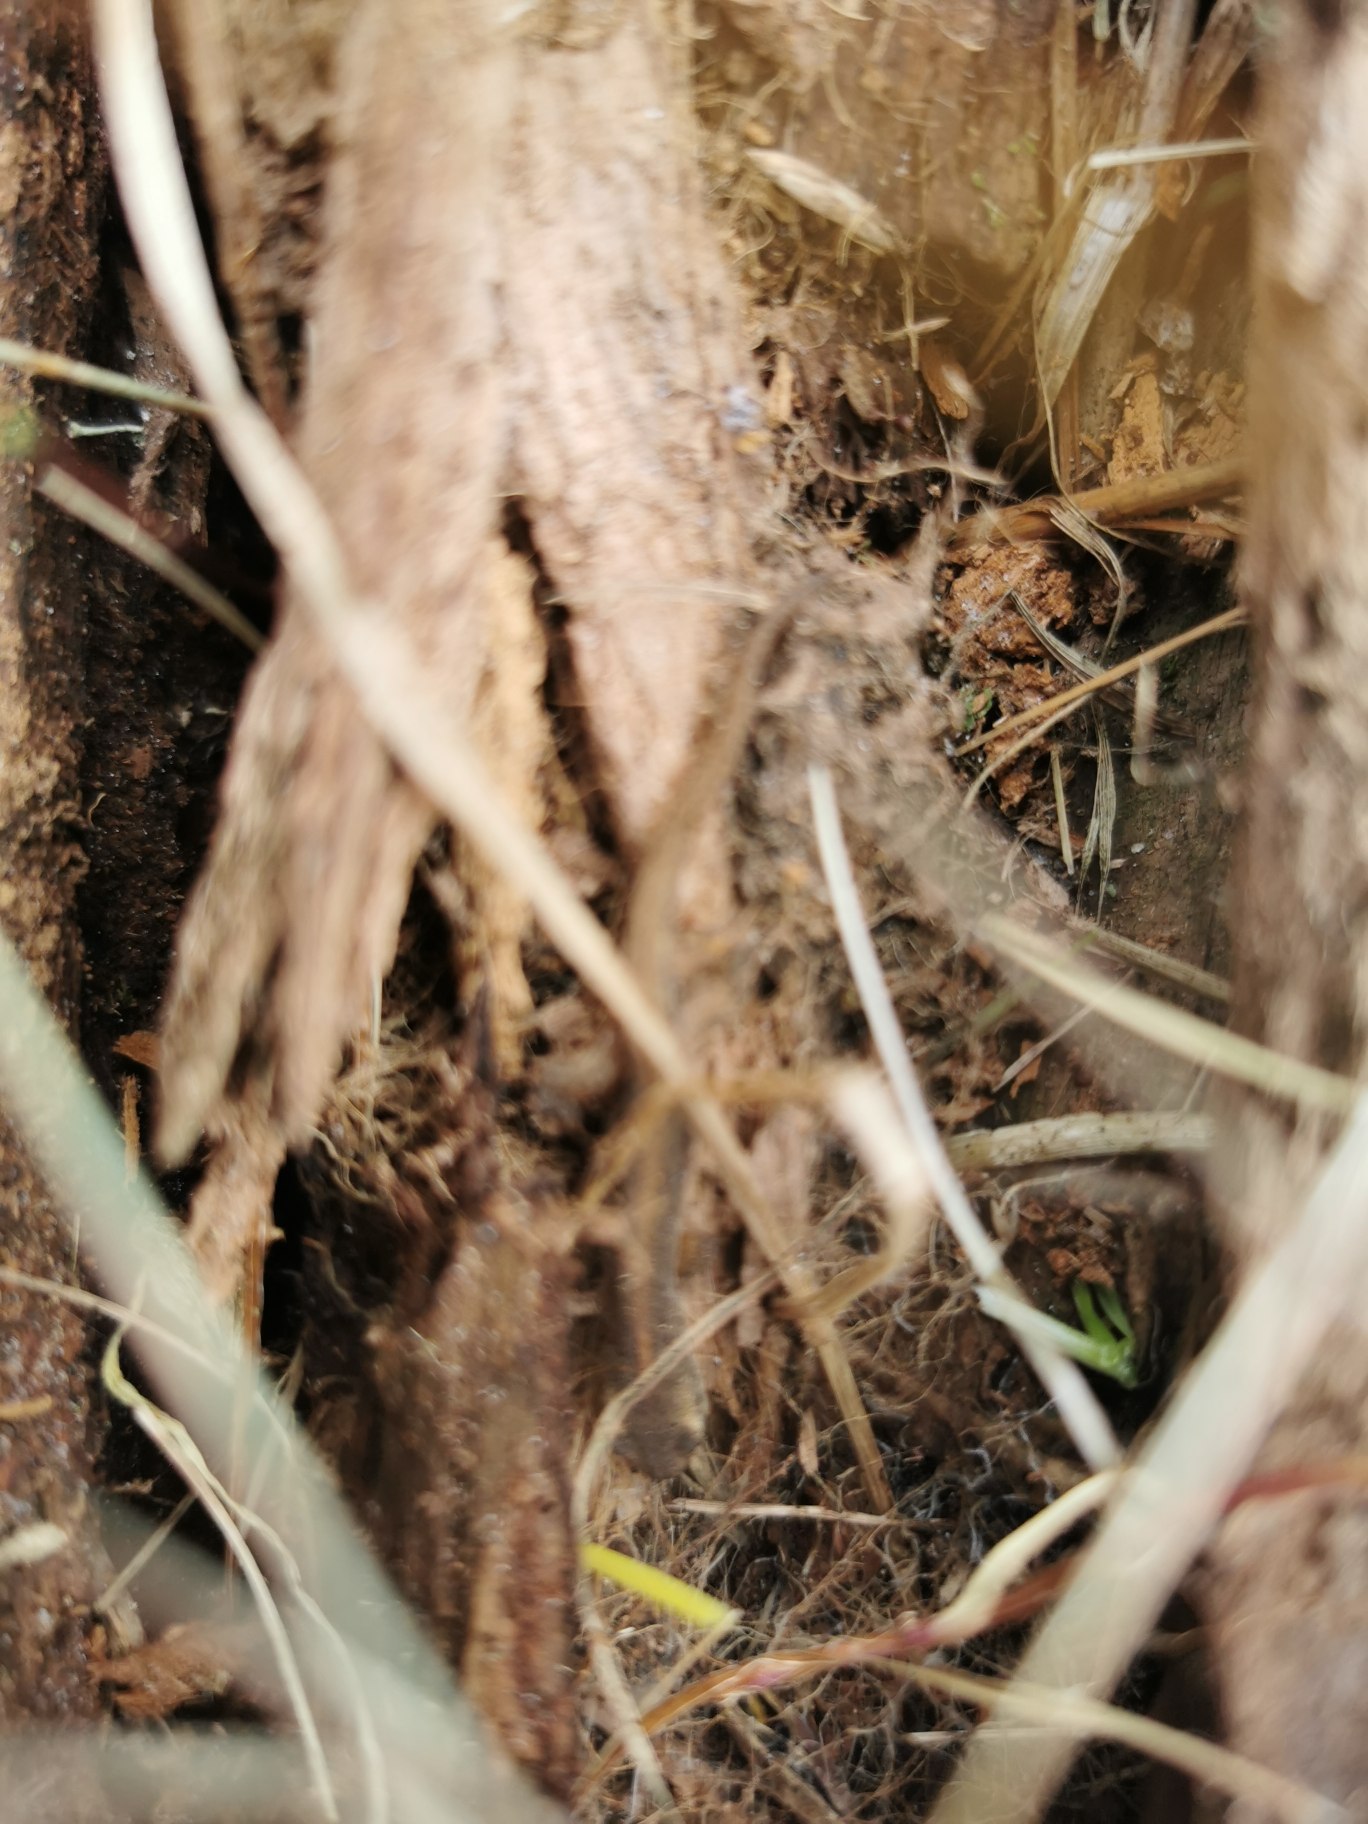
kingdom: Animalia
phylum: Chordata
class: Amphibia
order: Caudata
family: Salamandridae
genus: Lissotriton
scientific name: Lissotriton vulgaris
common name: Lille vandsalamander
